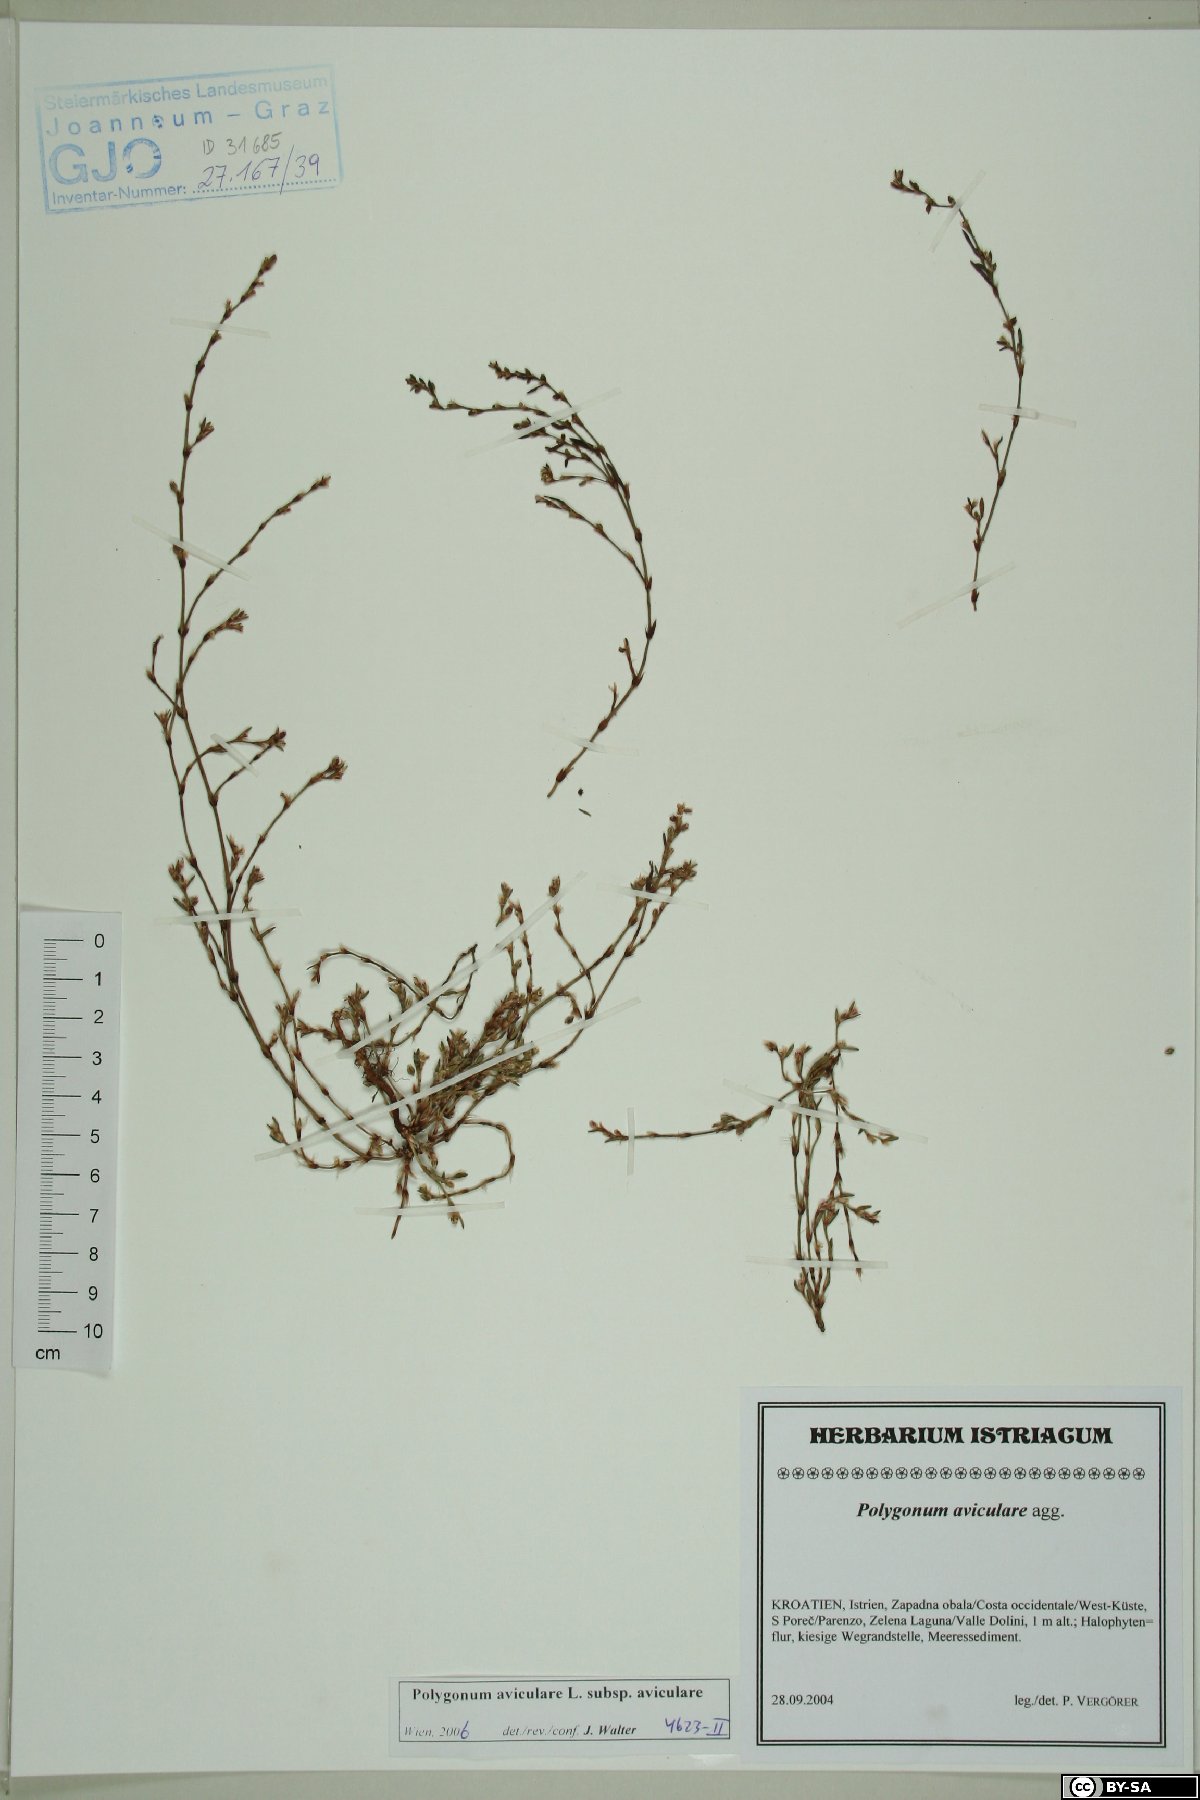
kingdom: Plantae
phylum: Tracheophyta
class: Magnoliopsida
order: Caryophyllales
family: Polygonaceae
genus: Polygonum
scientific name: Polygonum aviculare
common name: Prostrate knotweed
